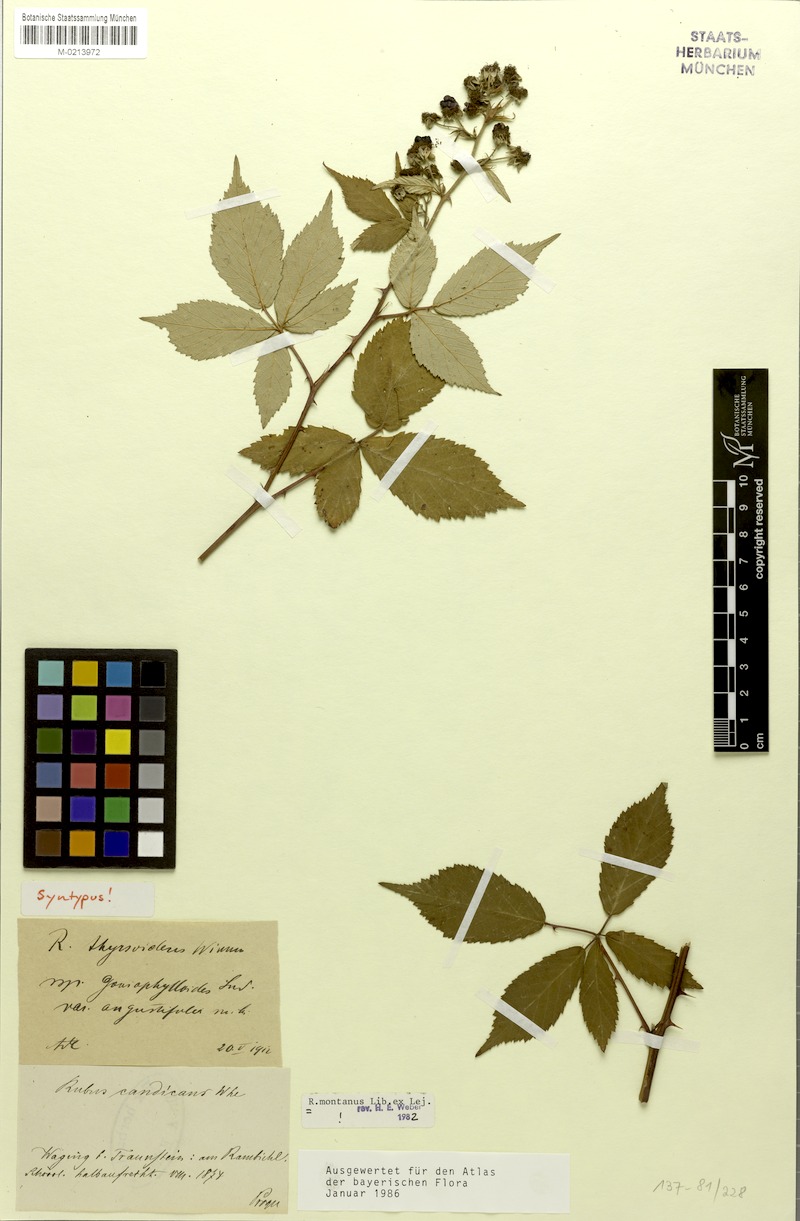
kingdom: Plantae
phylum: Tracheophyta
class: Magnoliopsida
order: Rosales
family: Rosaceae
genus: Rubus
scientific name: Rubus montanus
